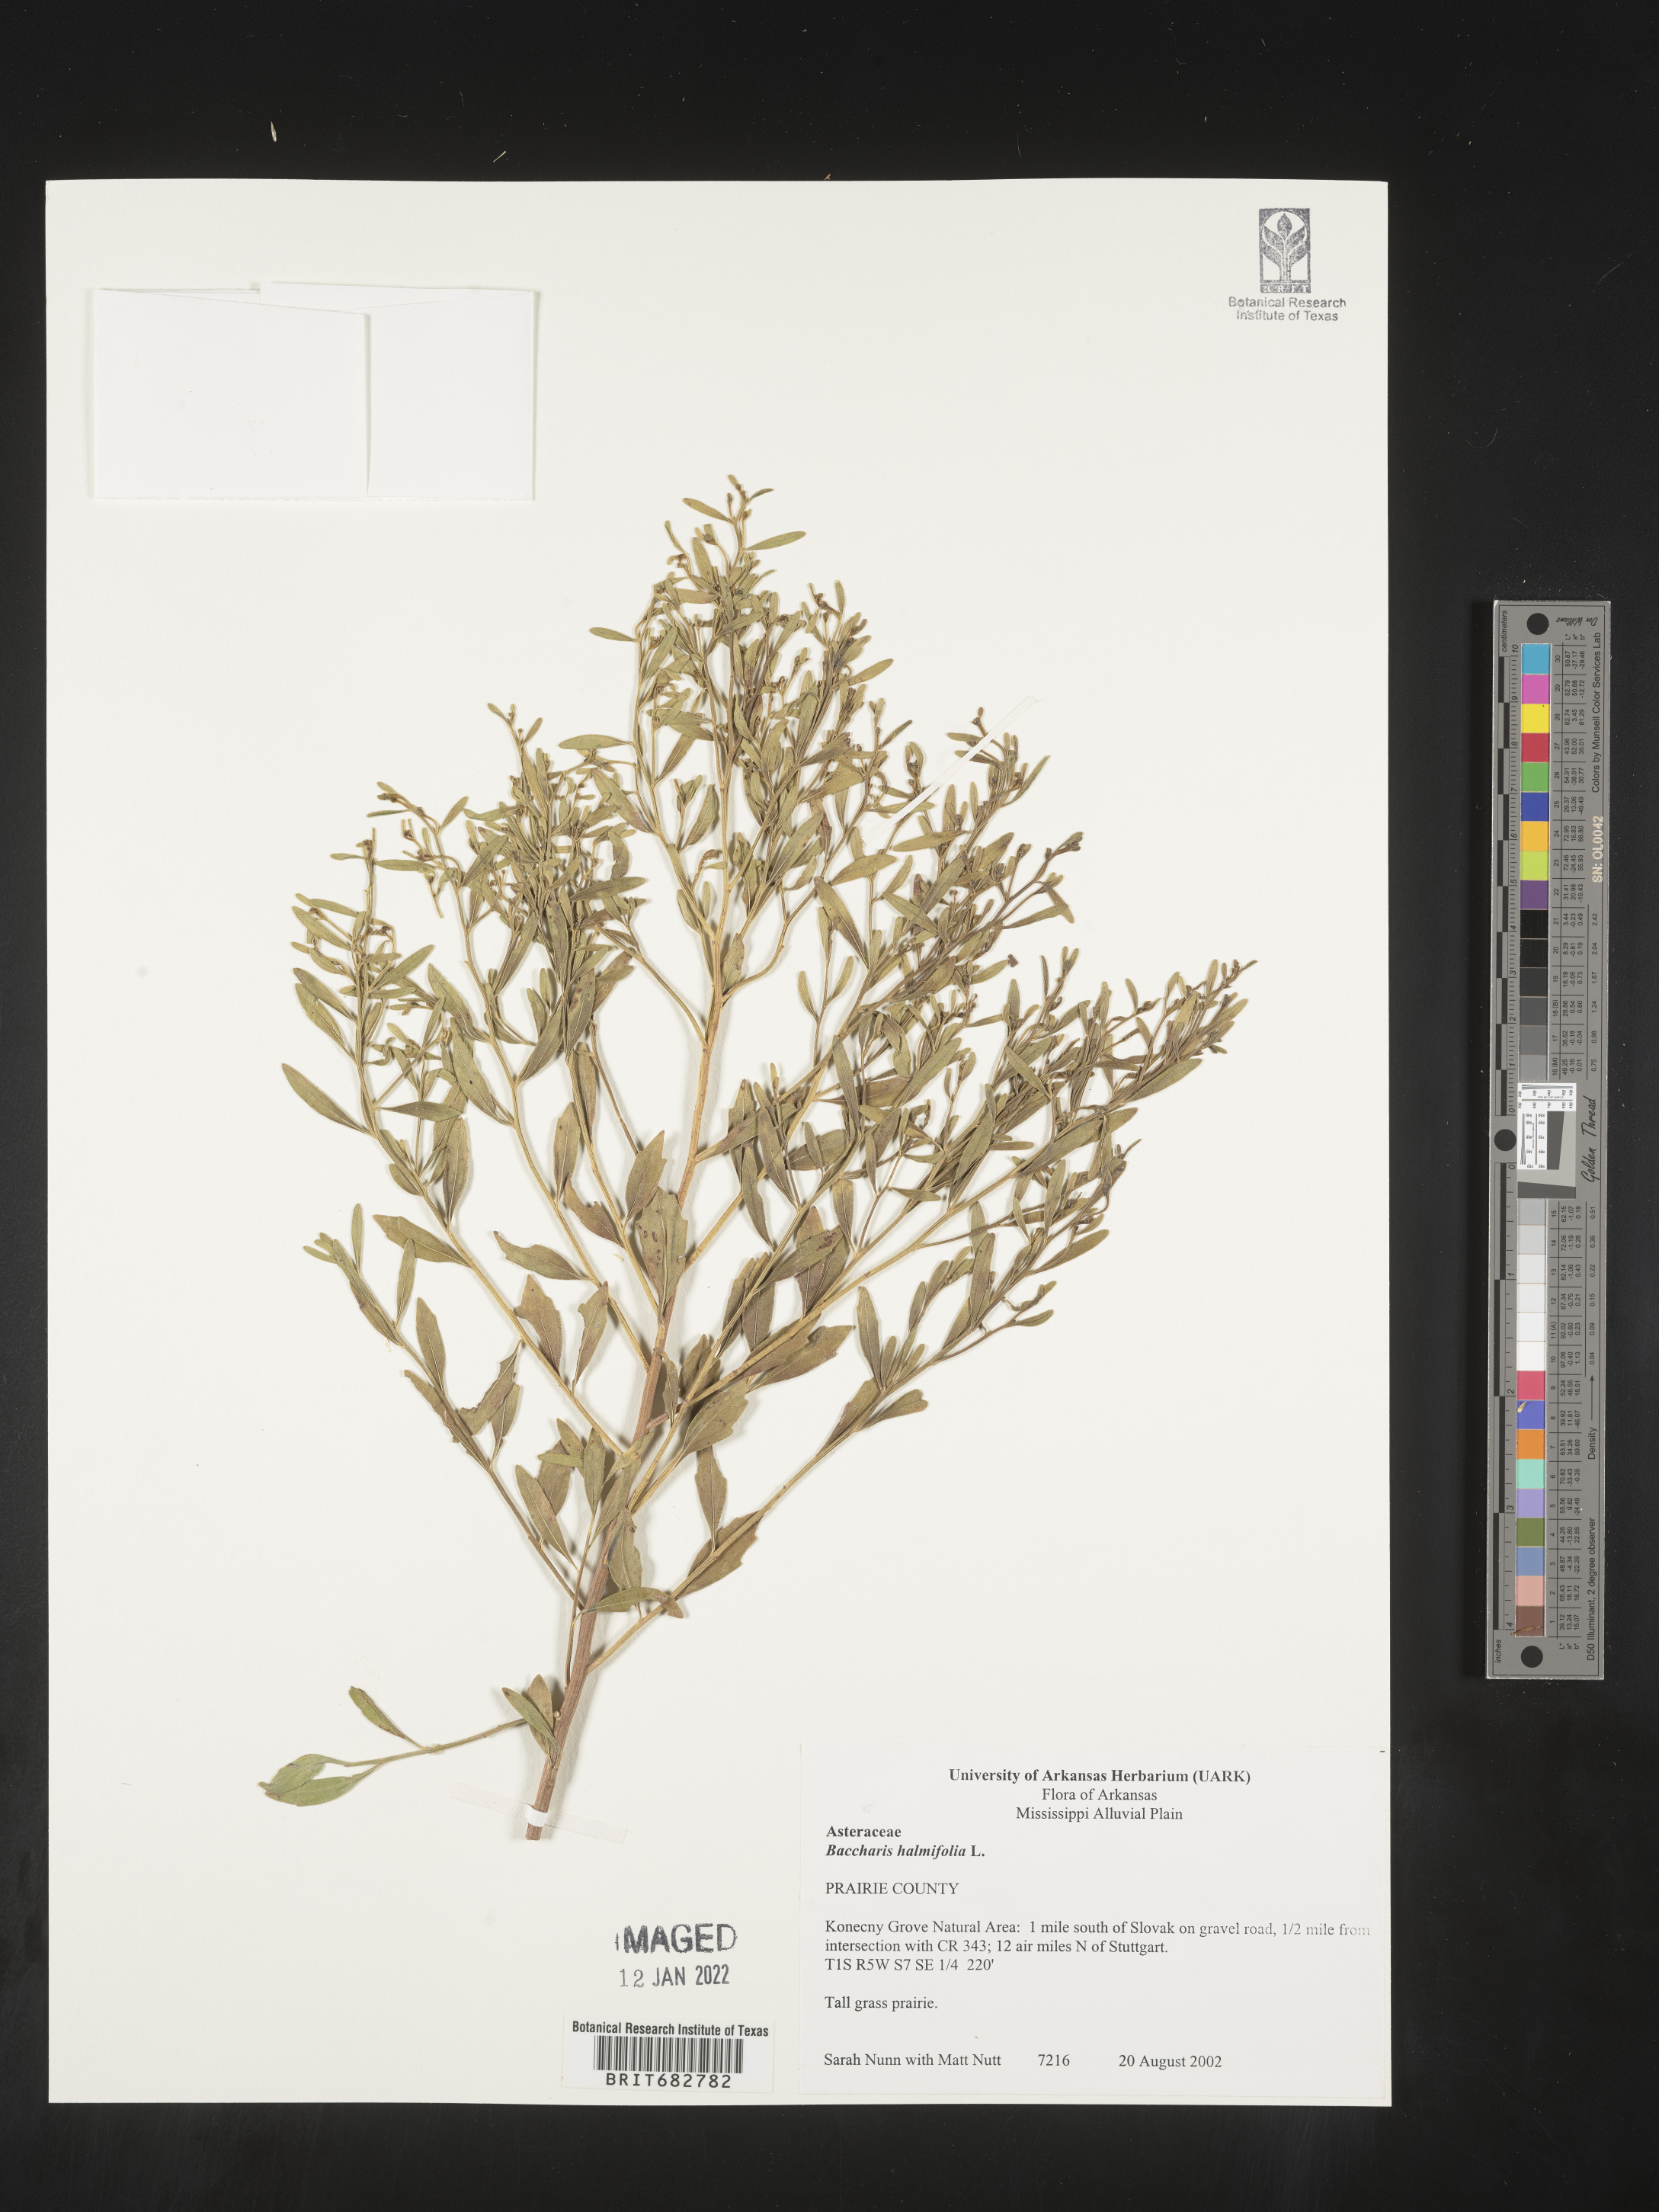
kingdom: Plantae
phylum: Tracheophyta
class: Magnoliopsida
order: Asterales
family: Asteraceae
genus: Nidorella
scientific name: Nidorella ivifolia
